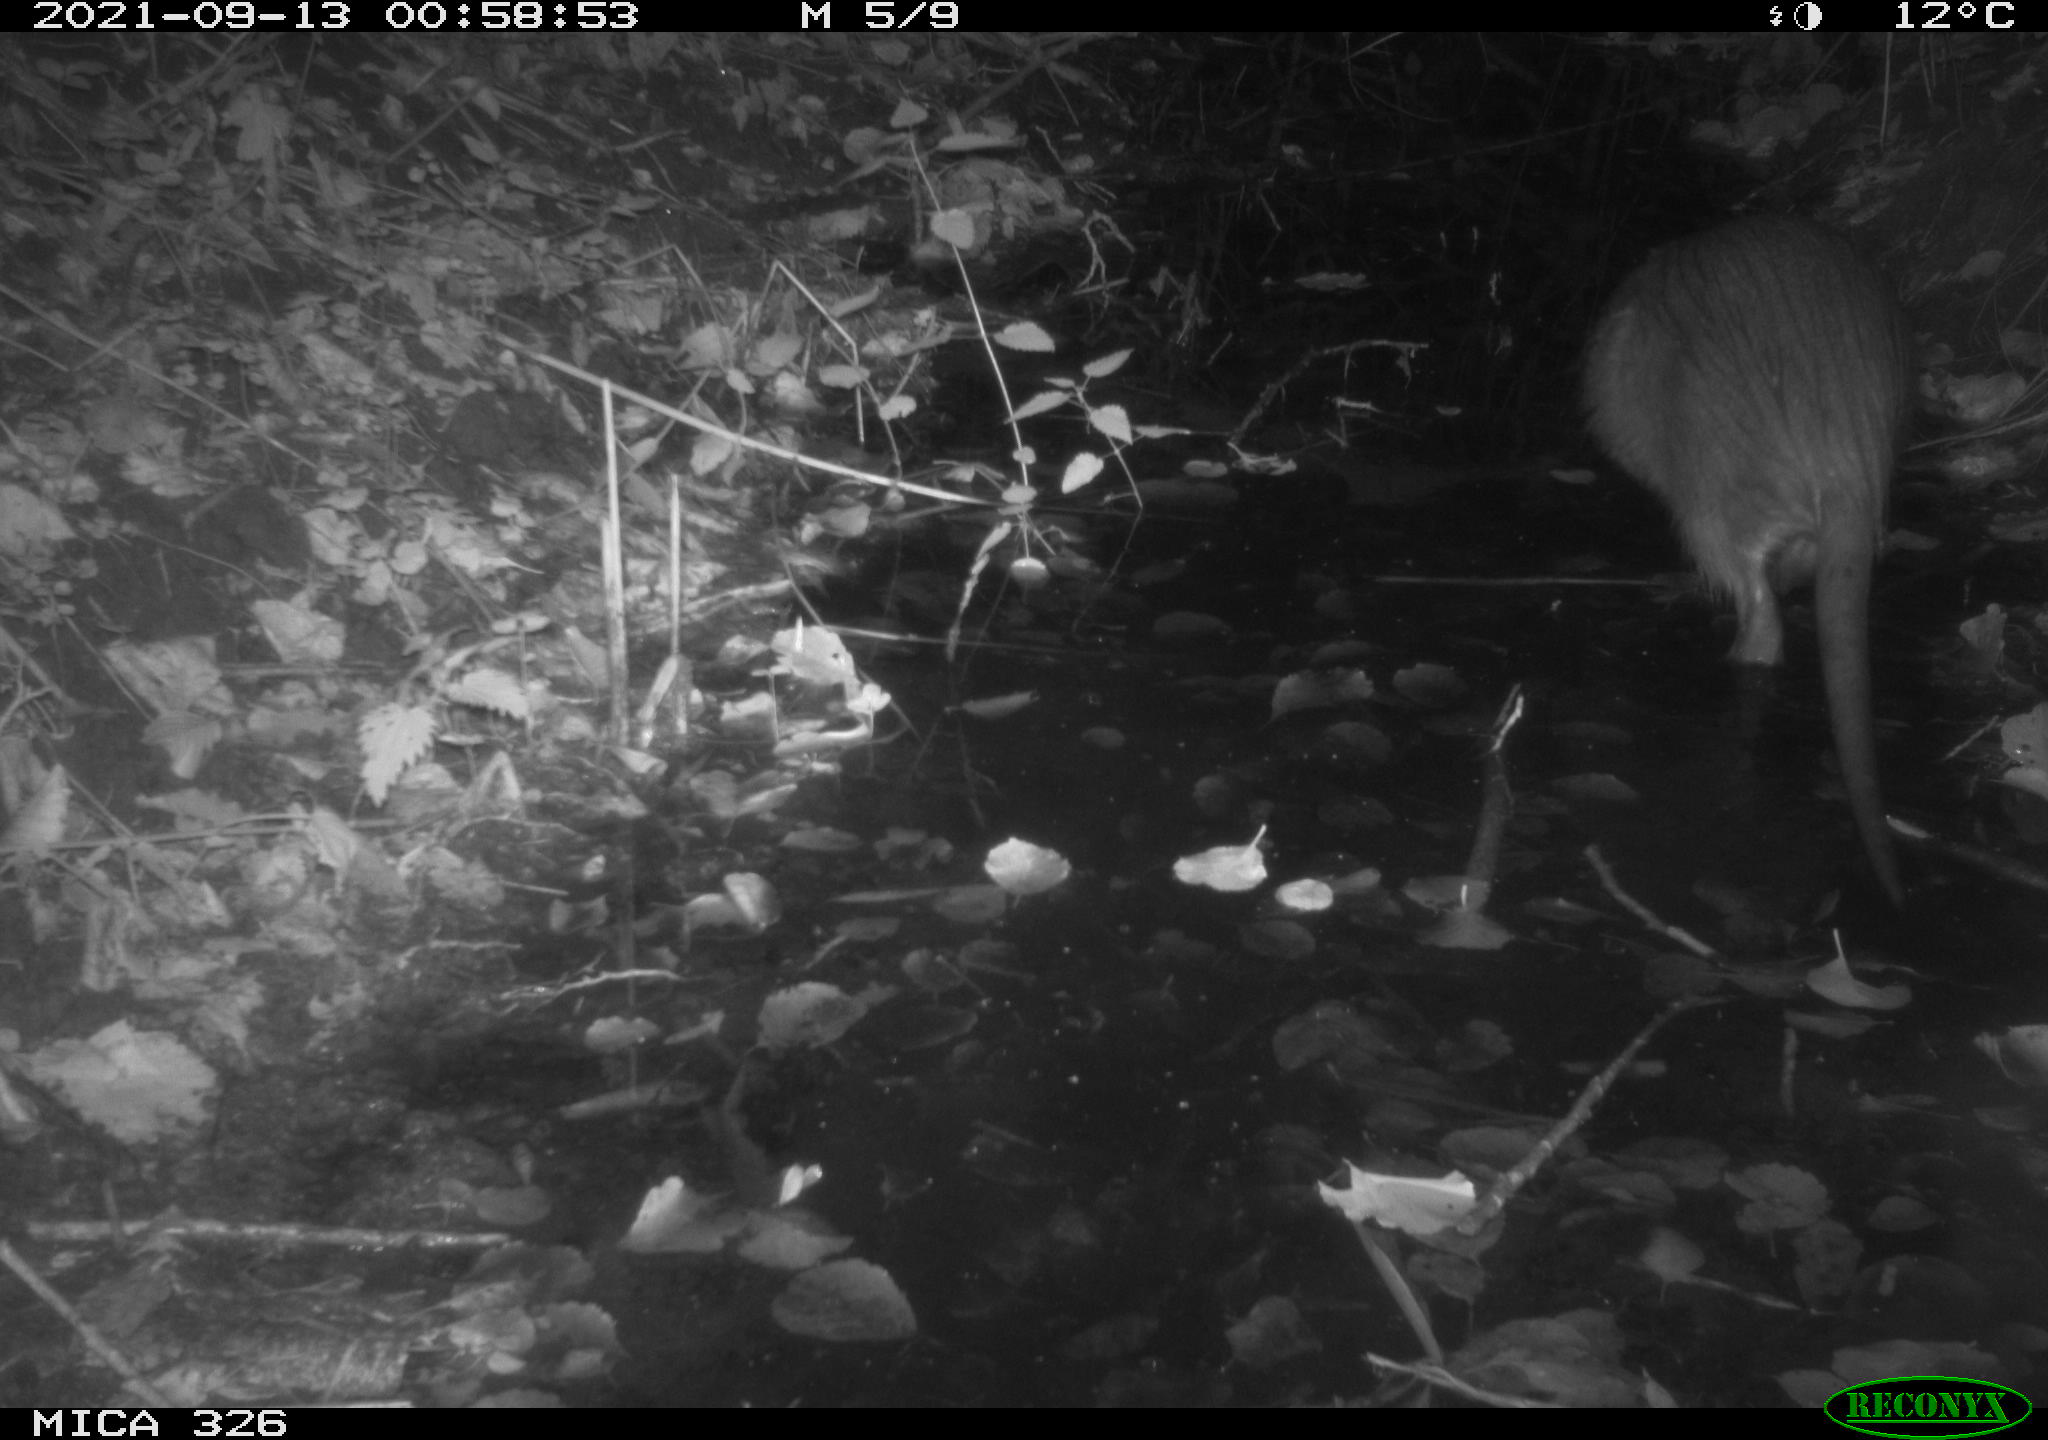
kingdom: Animalia
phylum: Chordata
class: Mammalia
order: Rodentia
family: Myocastoridae
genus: Myocastor
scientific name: Myocastor coypus
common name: Coypu
